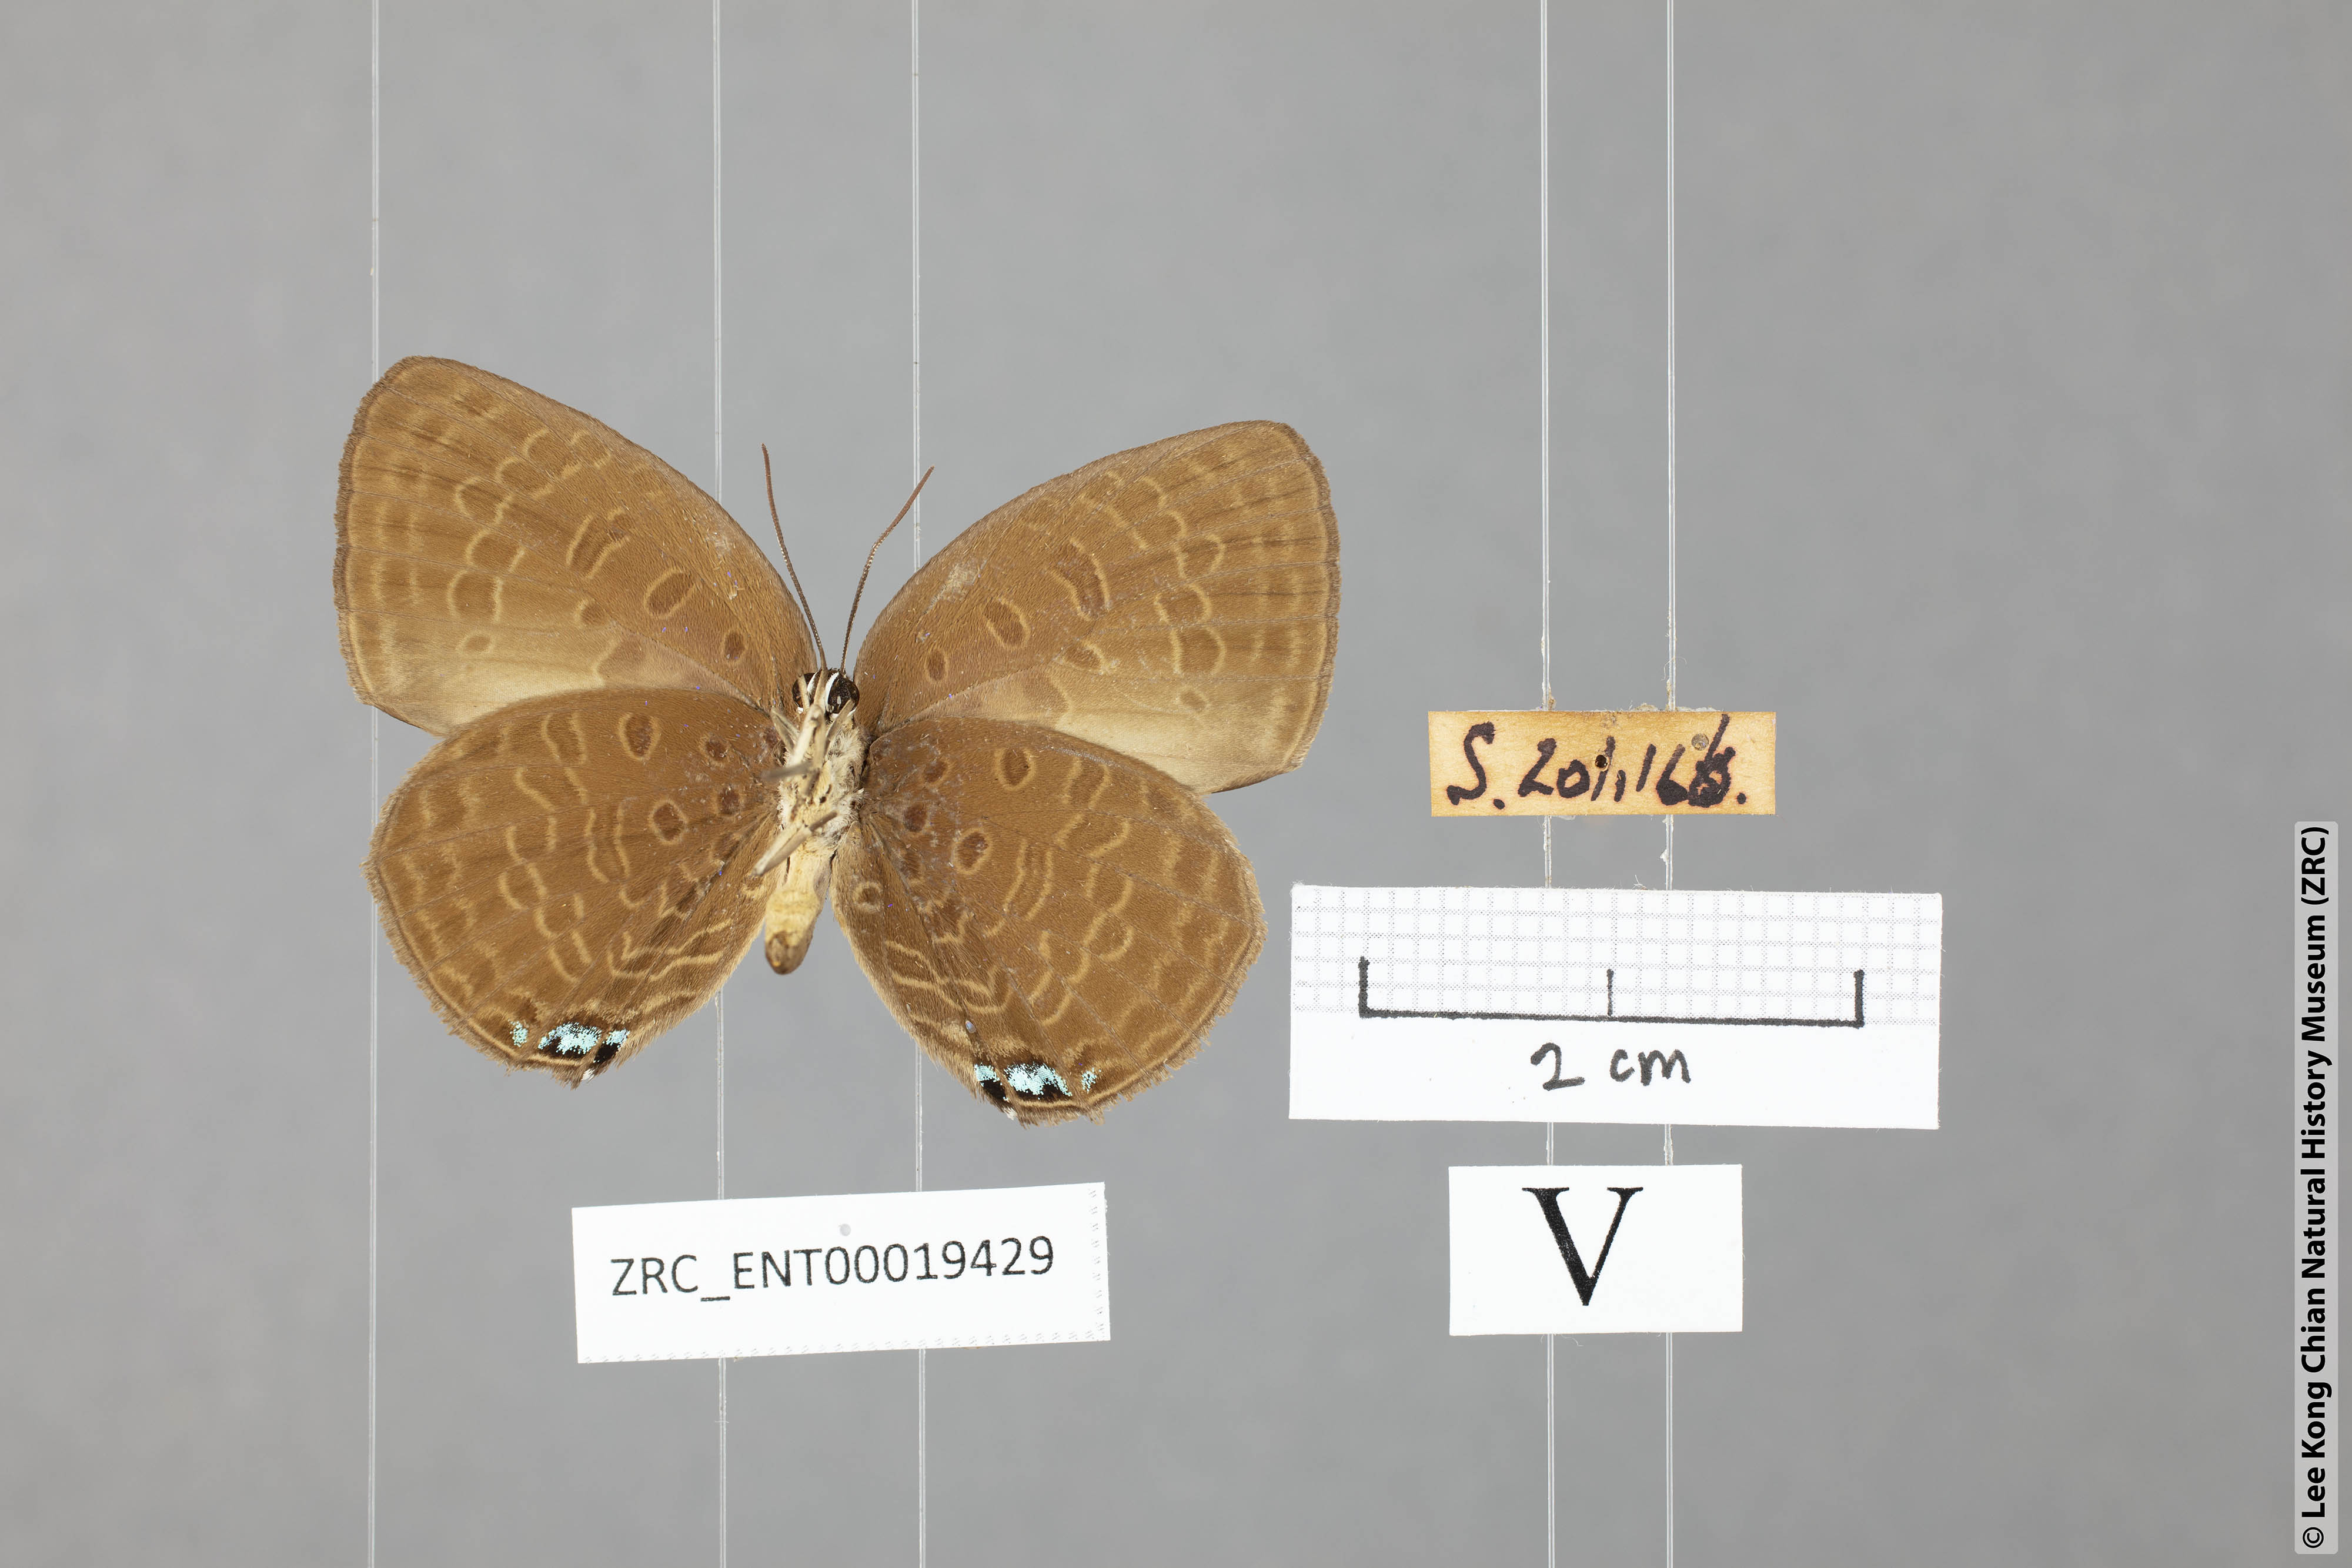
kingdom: Animalia
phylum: Arthropoda
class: Insecta
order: Lepidoptera
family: Lycaenidae
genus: Arhopala
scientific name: Arhopala epimuta
